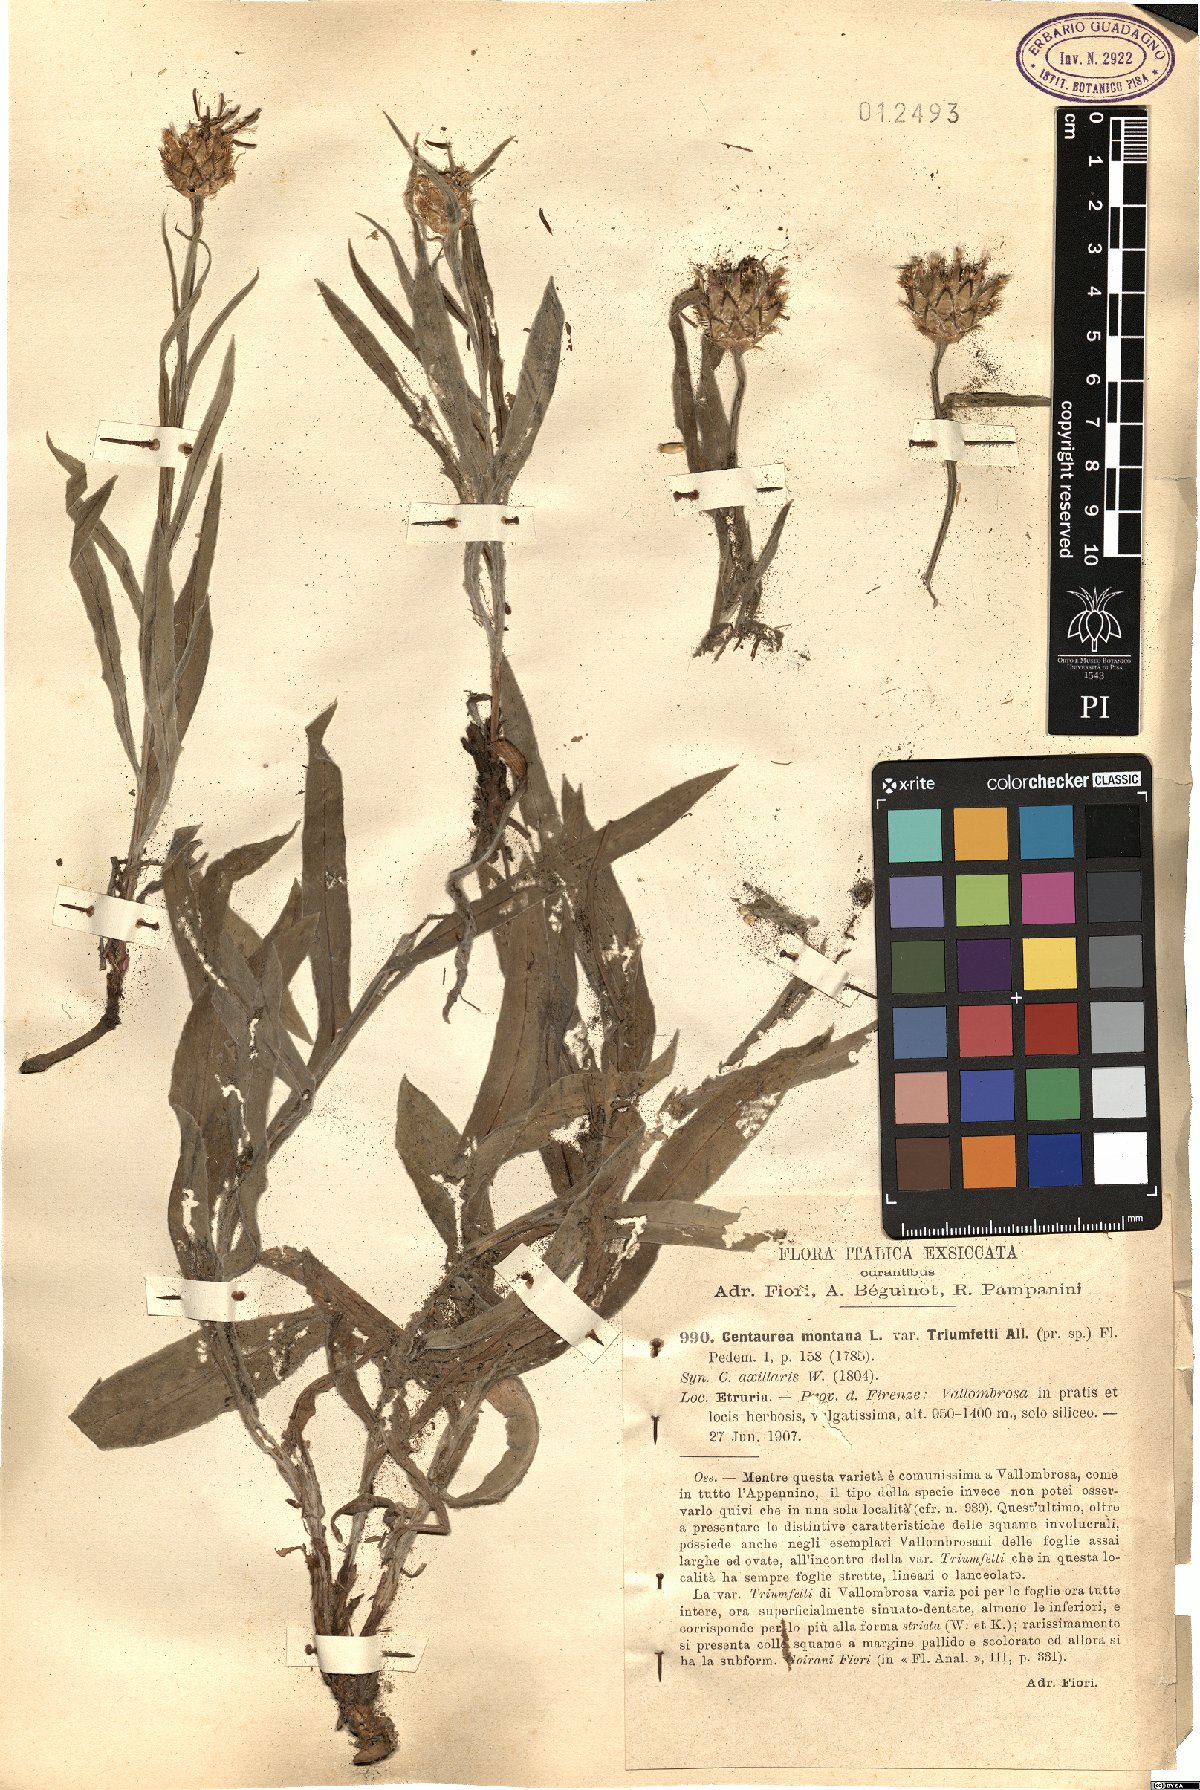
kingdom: Plantae
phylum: Tracheophyta
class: Magnoliopsida
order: Asterales
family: Asteraceae
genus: Centaurea
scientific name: Centaurea montana
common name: Perennial cornflower
